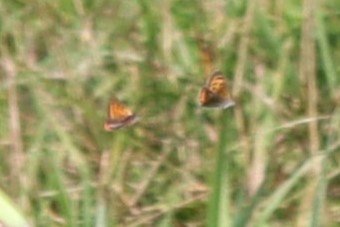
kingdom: Animalia
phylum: Arthropoda
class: Insecta
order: Lepidoptera
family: Lycaenidae
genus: Lycaena
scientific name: Lycaena phlaeas
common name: American Copper
